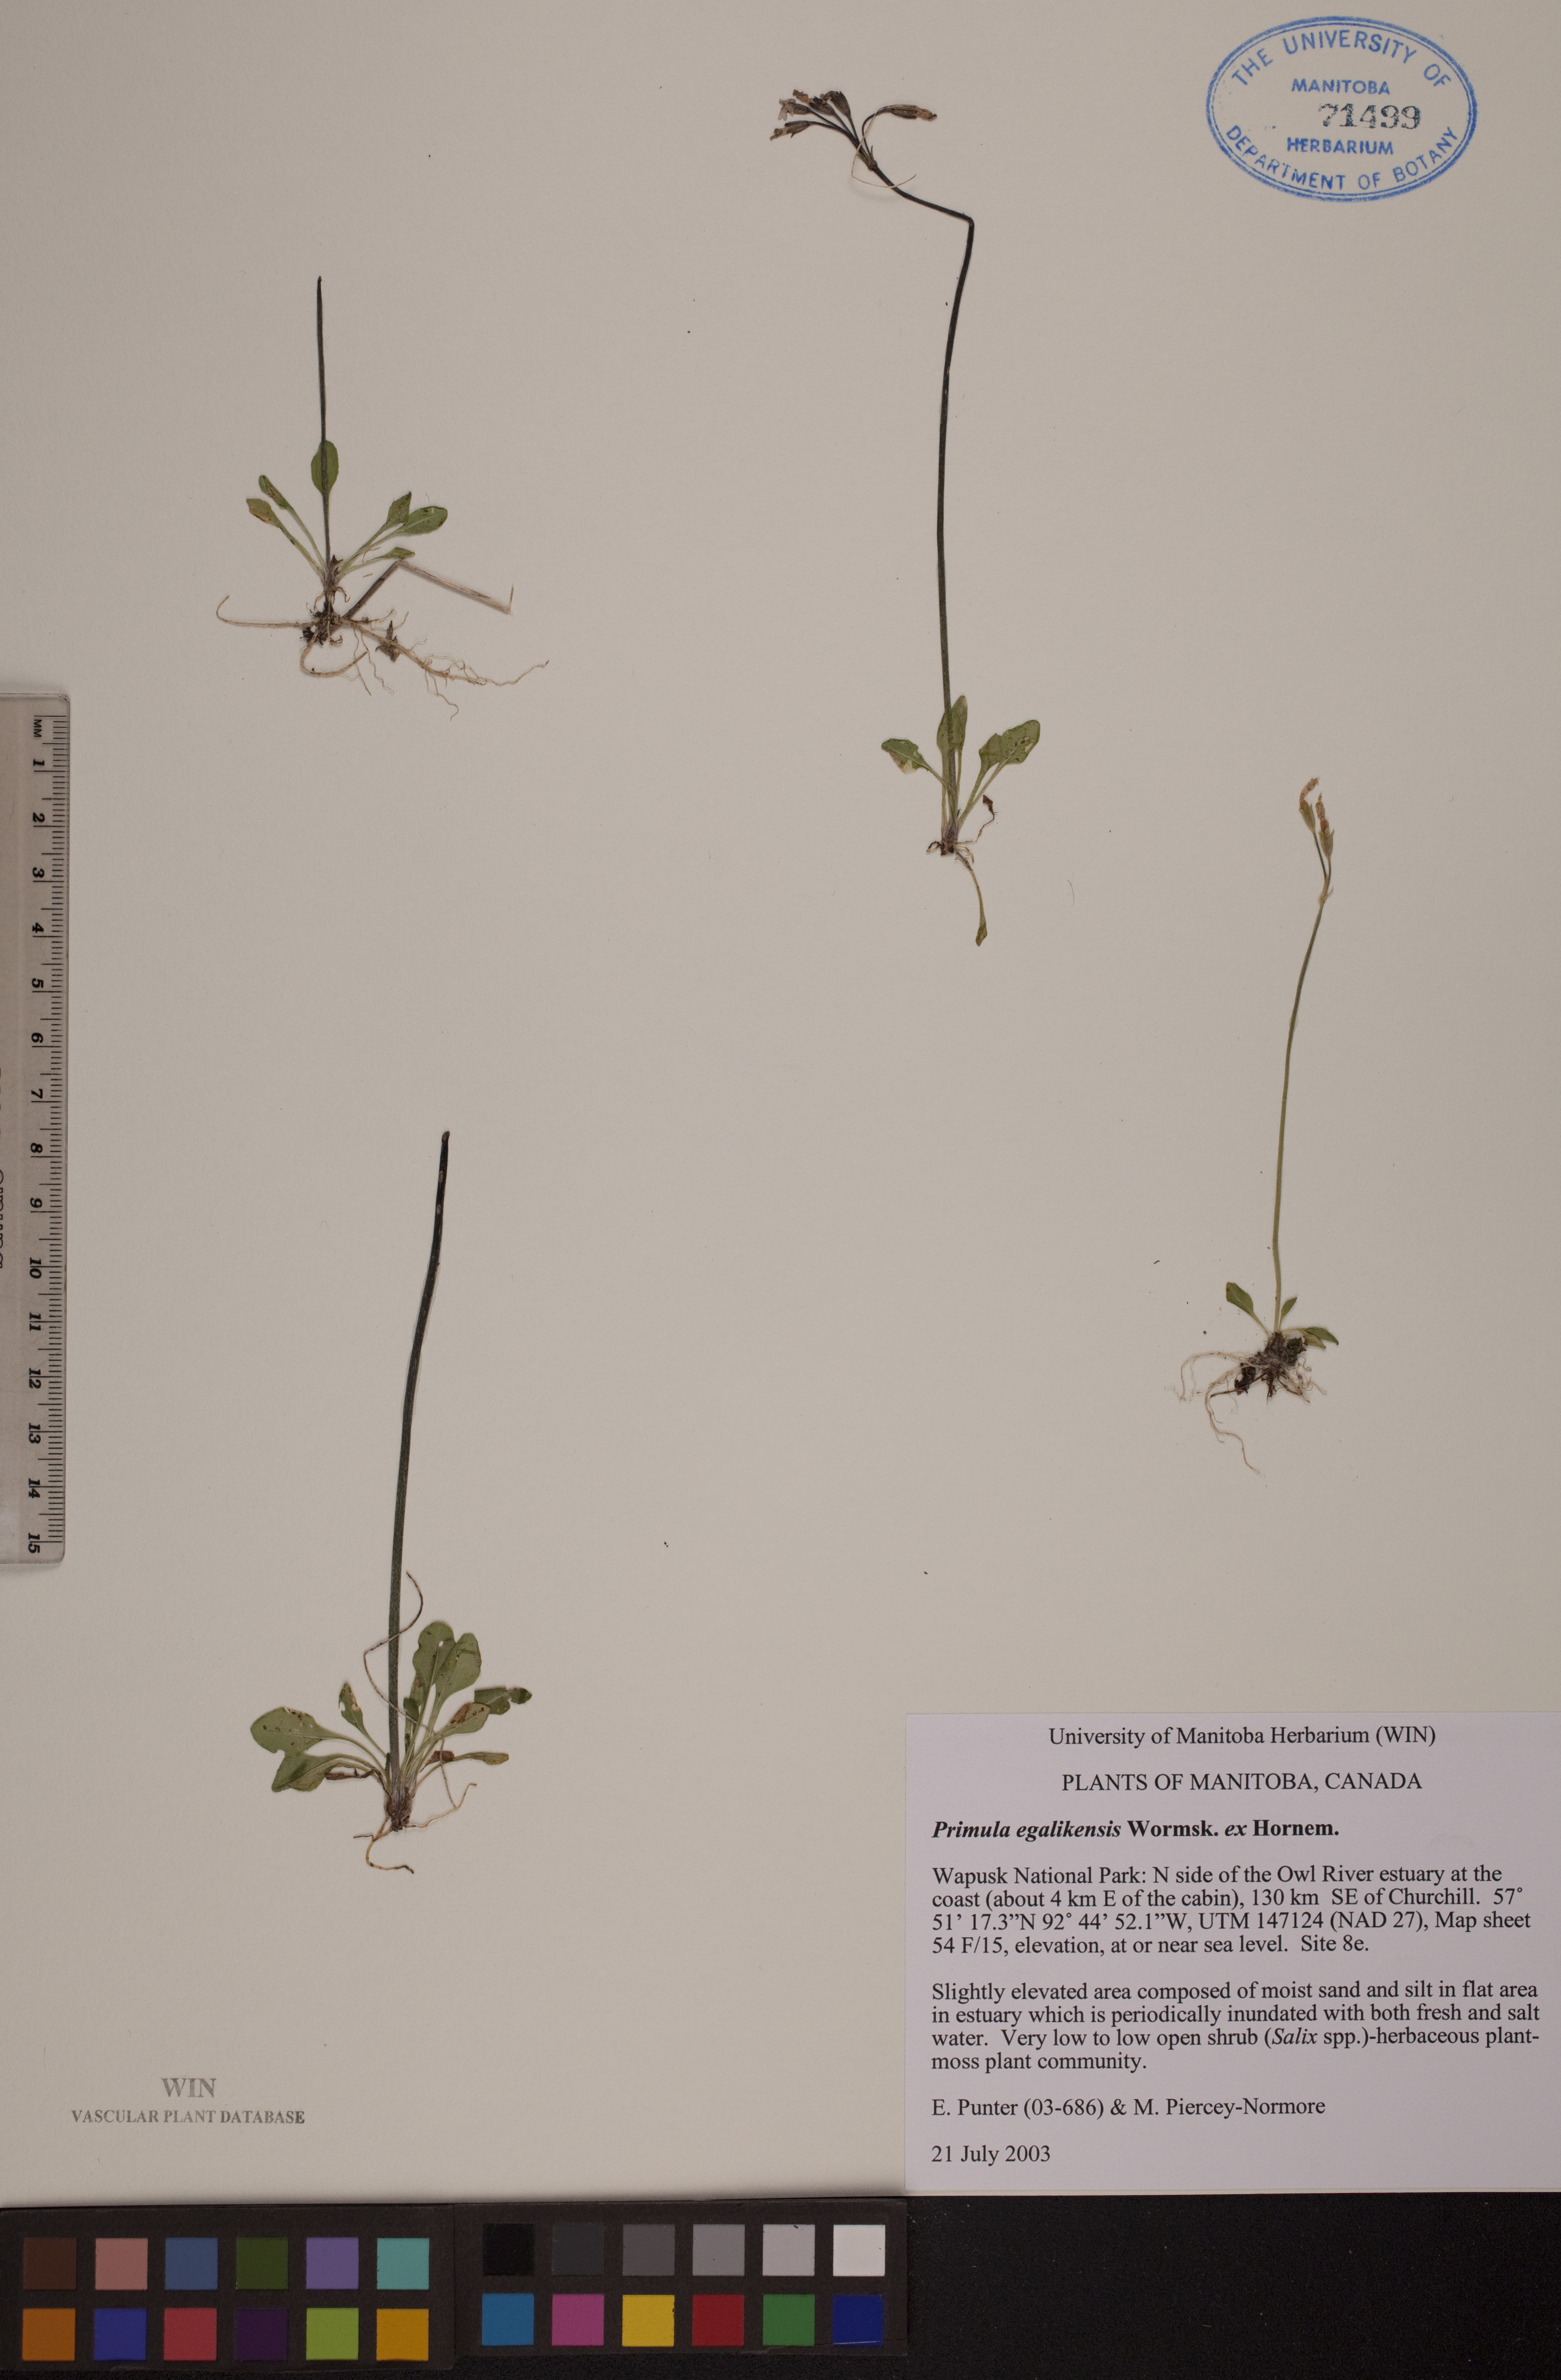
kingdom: Plantae
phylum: Tracheophyta
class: Magnoliopsida
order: Ericales
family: Primulaceae
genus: Primula
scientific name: Primula egaliksensis
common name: Greenland primrose
